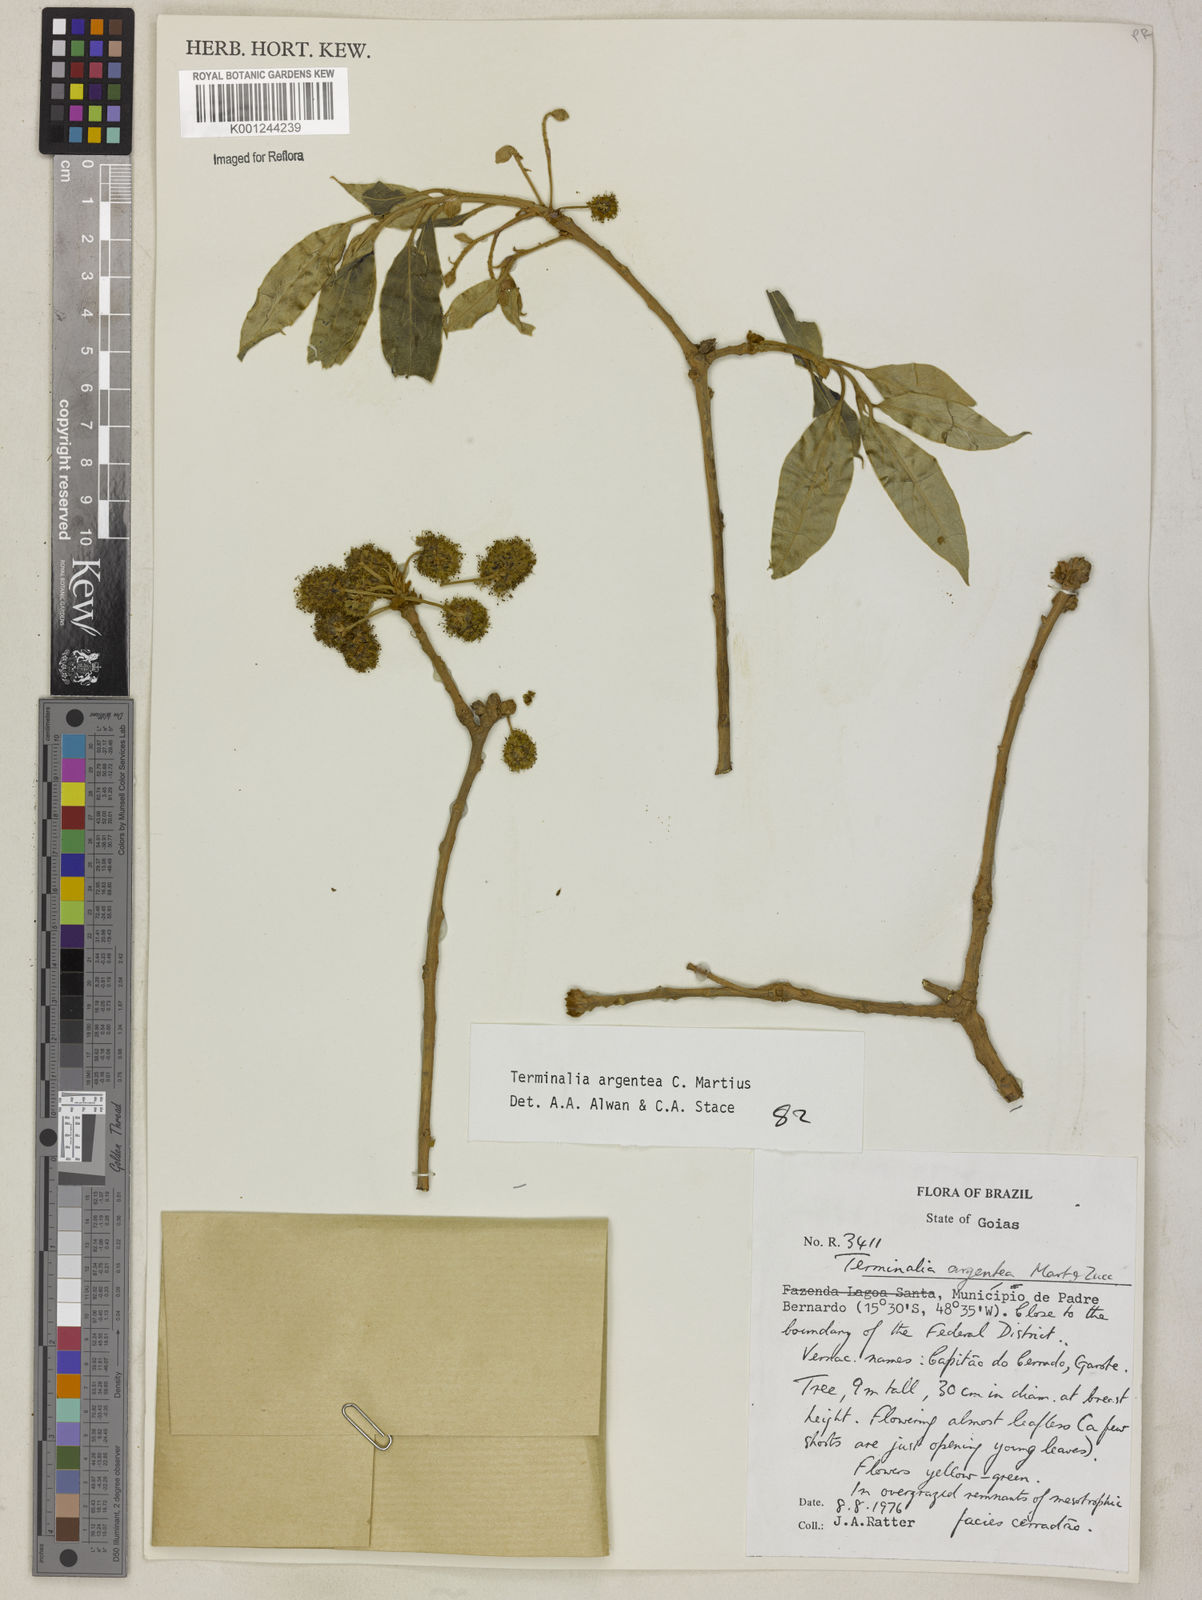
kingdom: Plantae
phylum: Tracheophyta
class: Magnoliopsida
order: Myrtales
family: Combretaceae
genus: Terminalia
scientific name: Terminalia argentea
